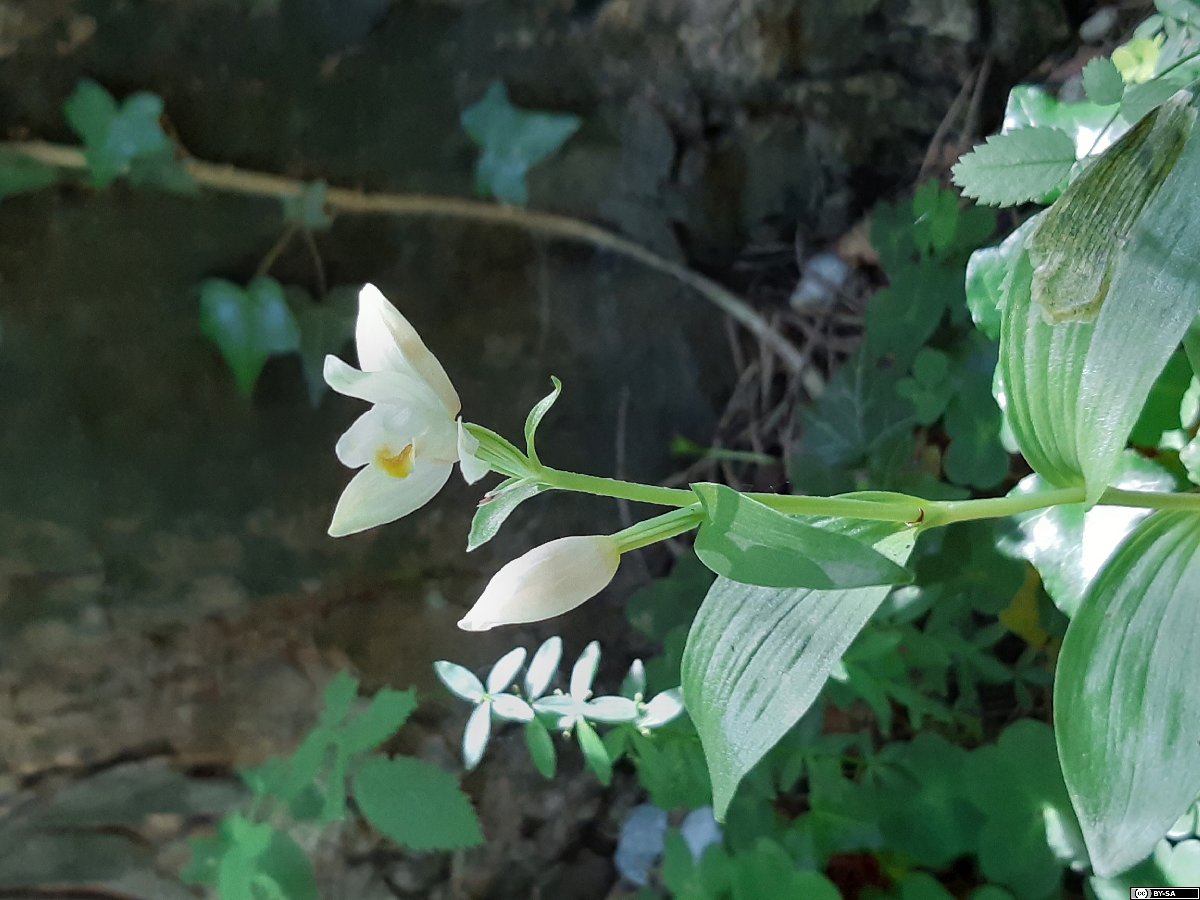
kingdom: Plantae
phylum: Tracheophyta
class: Liliopsida
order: Poales
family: Poaceae
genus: Koeleria
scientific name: Koeleria lasiorhachis
